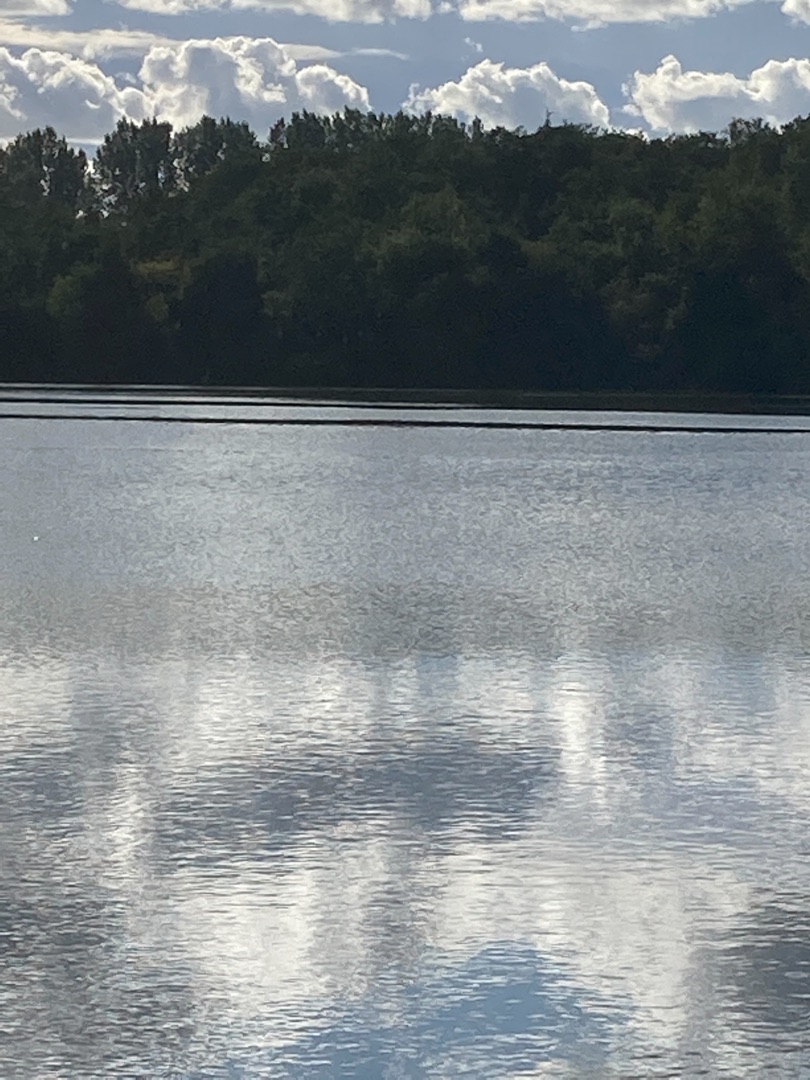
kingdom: Animalia
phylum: Chordata
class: Aves
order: Pelecaniformes
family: Ardeidae
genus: Ardea
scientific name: Ardea cinerea
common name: Fiskehejre
